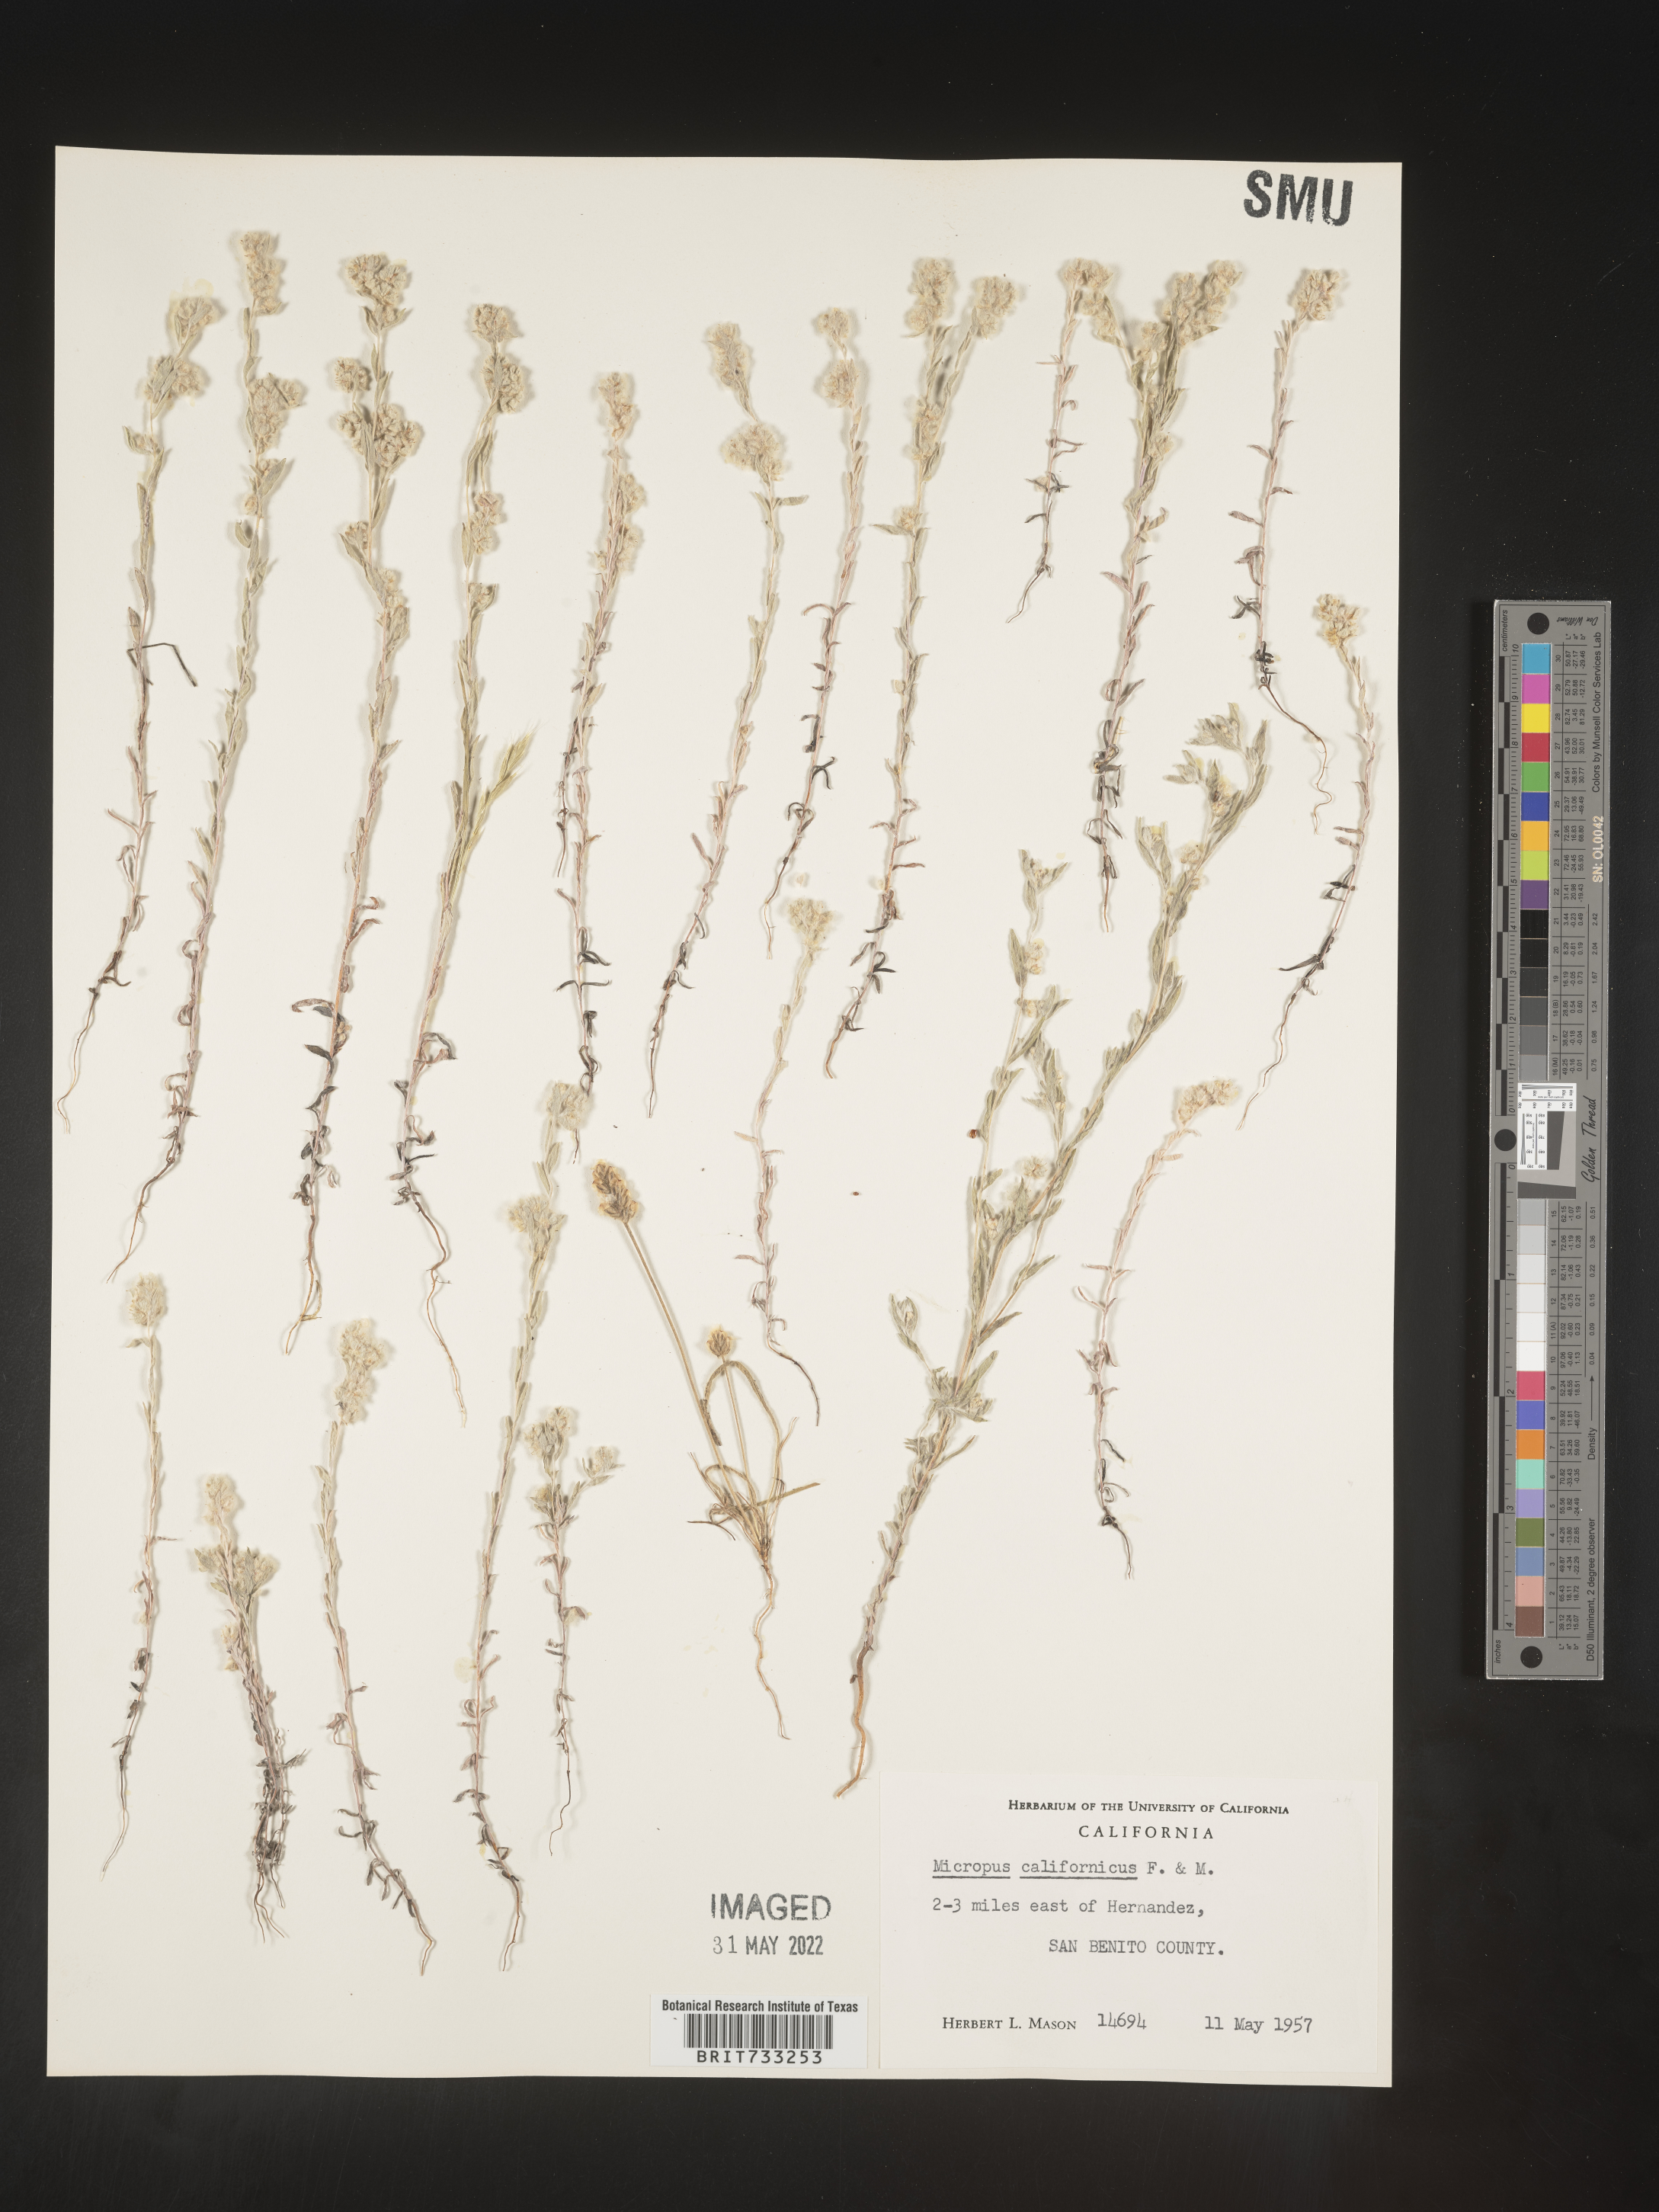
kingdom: Plantae
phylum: Tracheophyta
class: Magnoliopsida
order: Asterales
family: Asteraceae
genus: Micropus
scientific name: Micropus
